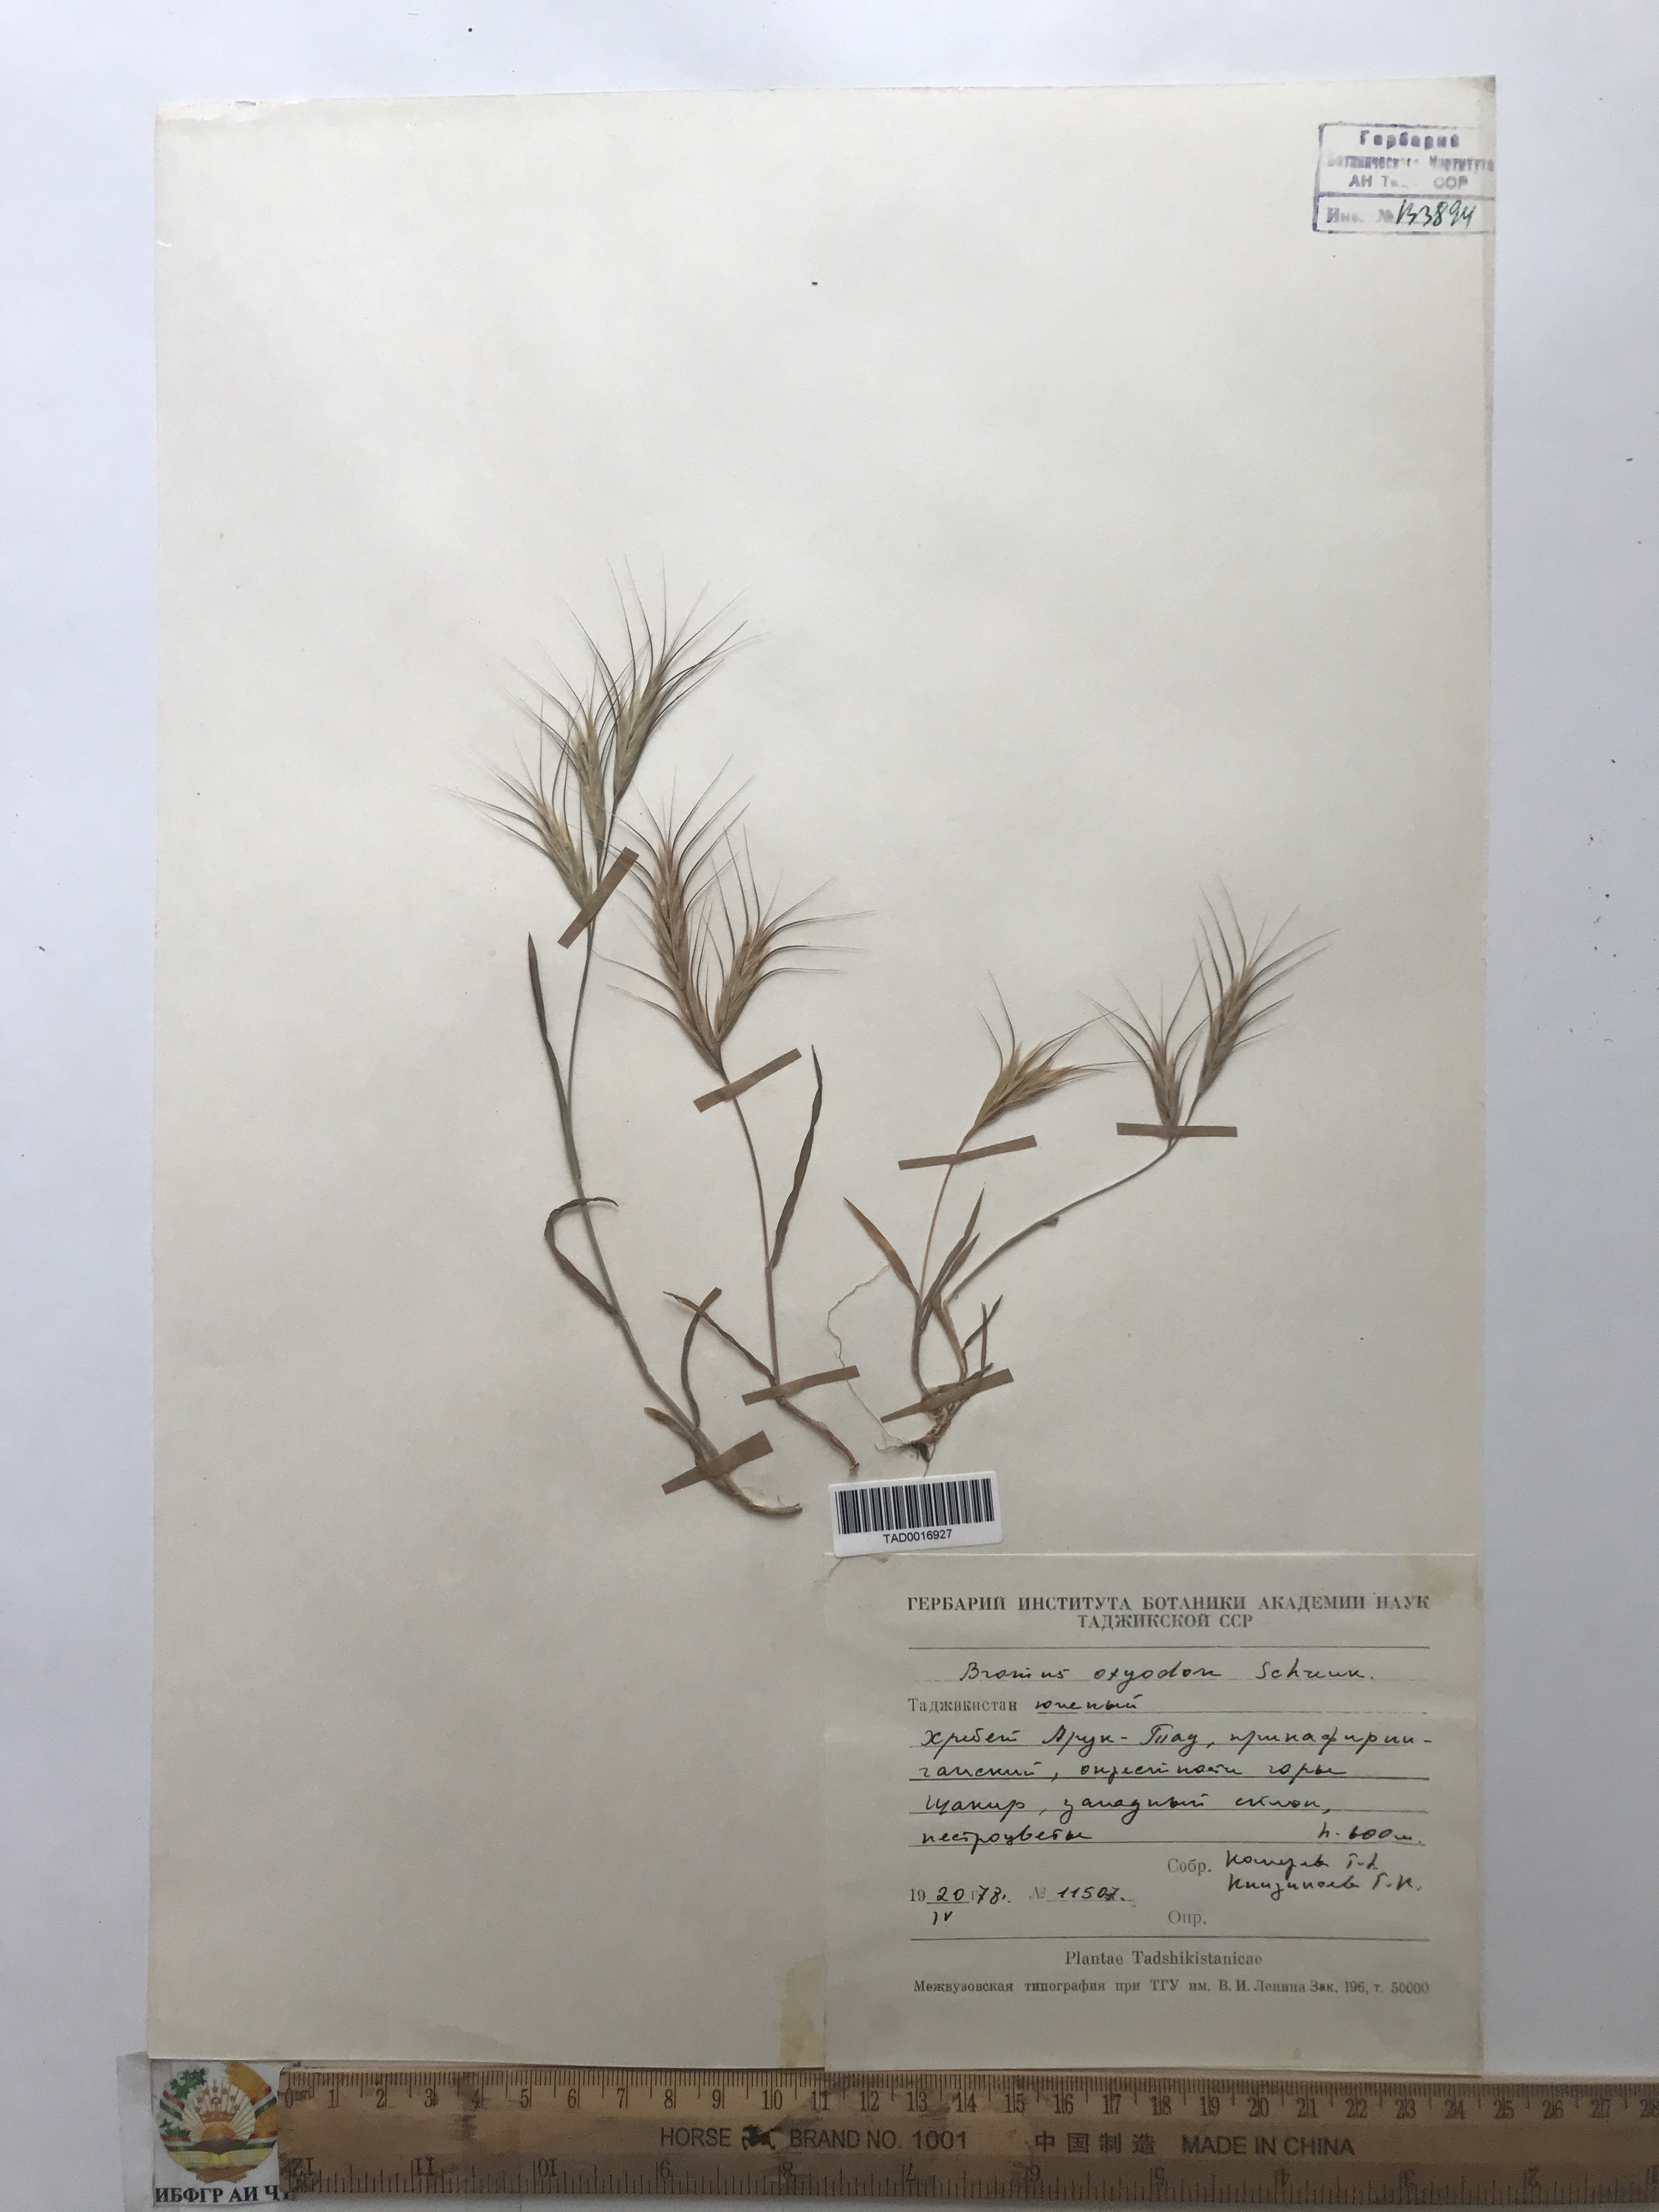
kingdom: Plantae
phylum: Tracheophyta
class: Liliopsida
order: Poales
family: Poaceae
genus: Bromus
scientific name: Bromus oxyodon
